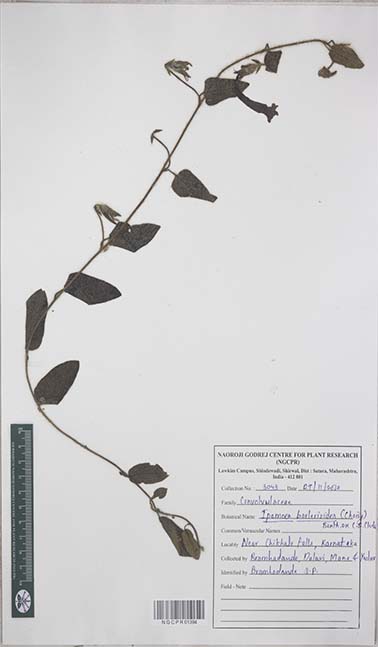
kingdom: Plantae
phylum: Tracheophyta
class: Magnoliopsida
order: Solanales
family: Convolvulaceae
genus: Ipomoea
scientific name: Ipomoea barlerioides
